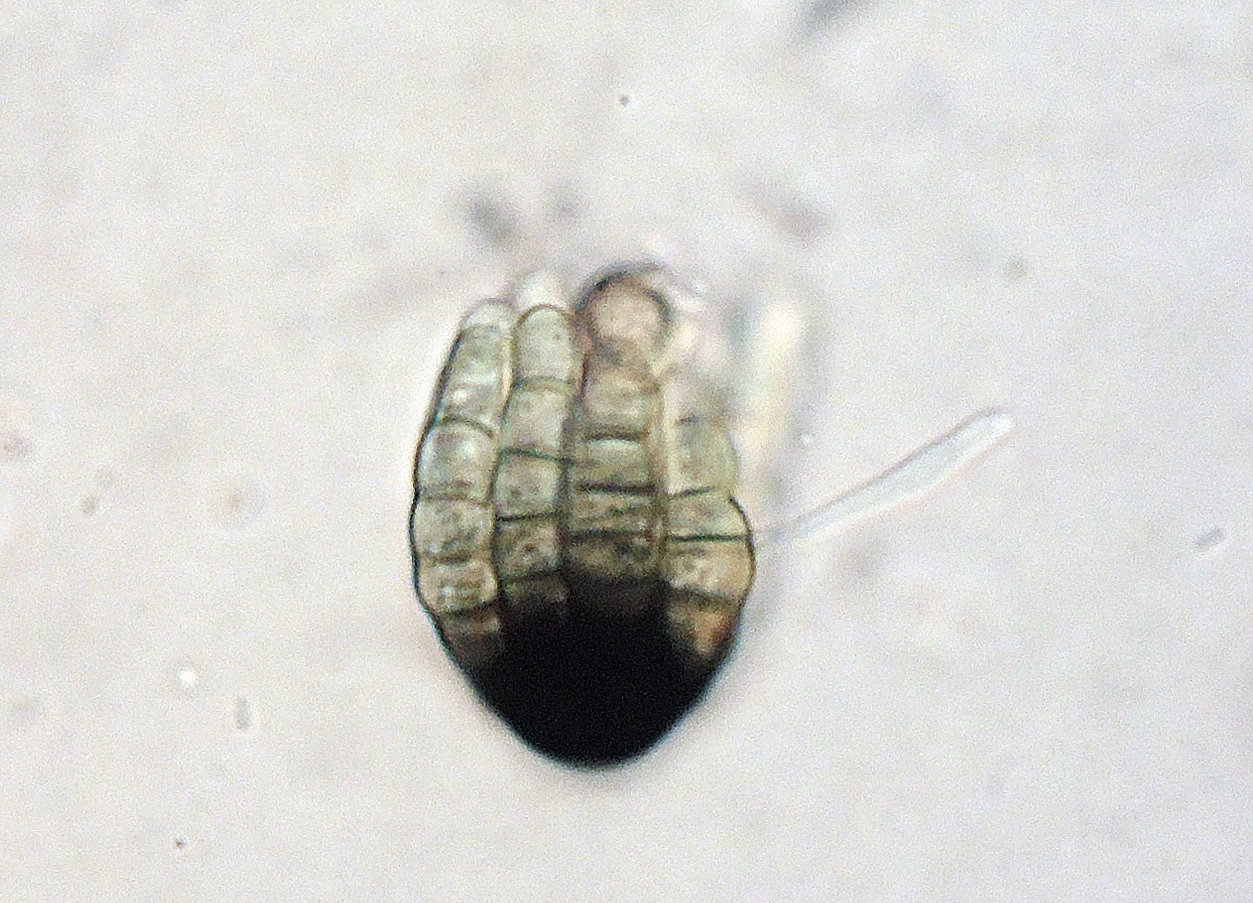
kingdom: Fungi
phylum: Ascomycota
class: Dothideomycetes
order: Pleosporales
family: Cryptocoryneaceae
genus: Cryptocoryneum
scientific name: Cryptocoryneum rilstonei
